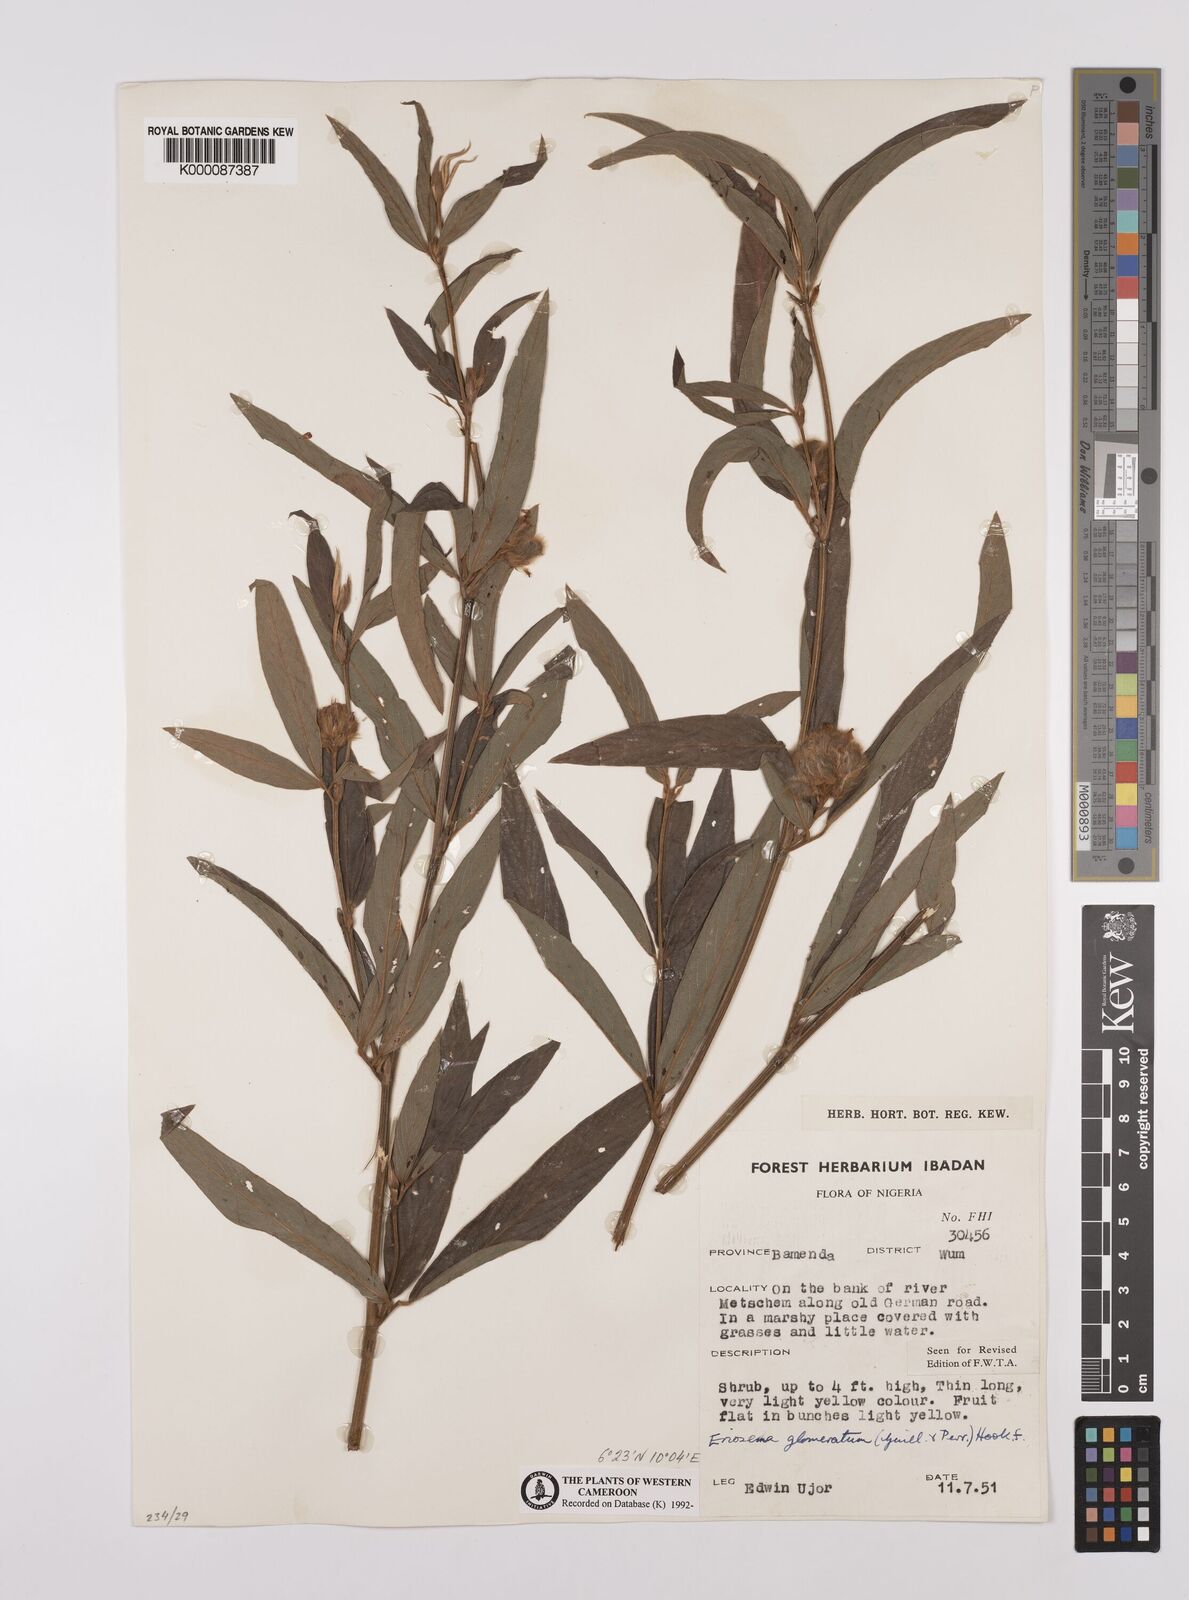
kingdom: Plantae
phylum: Tracheophyta
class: Magnoliopsida
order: Fabales
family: Fabaceae
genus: Eriosema
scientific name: Eriosema glomeratum
